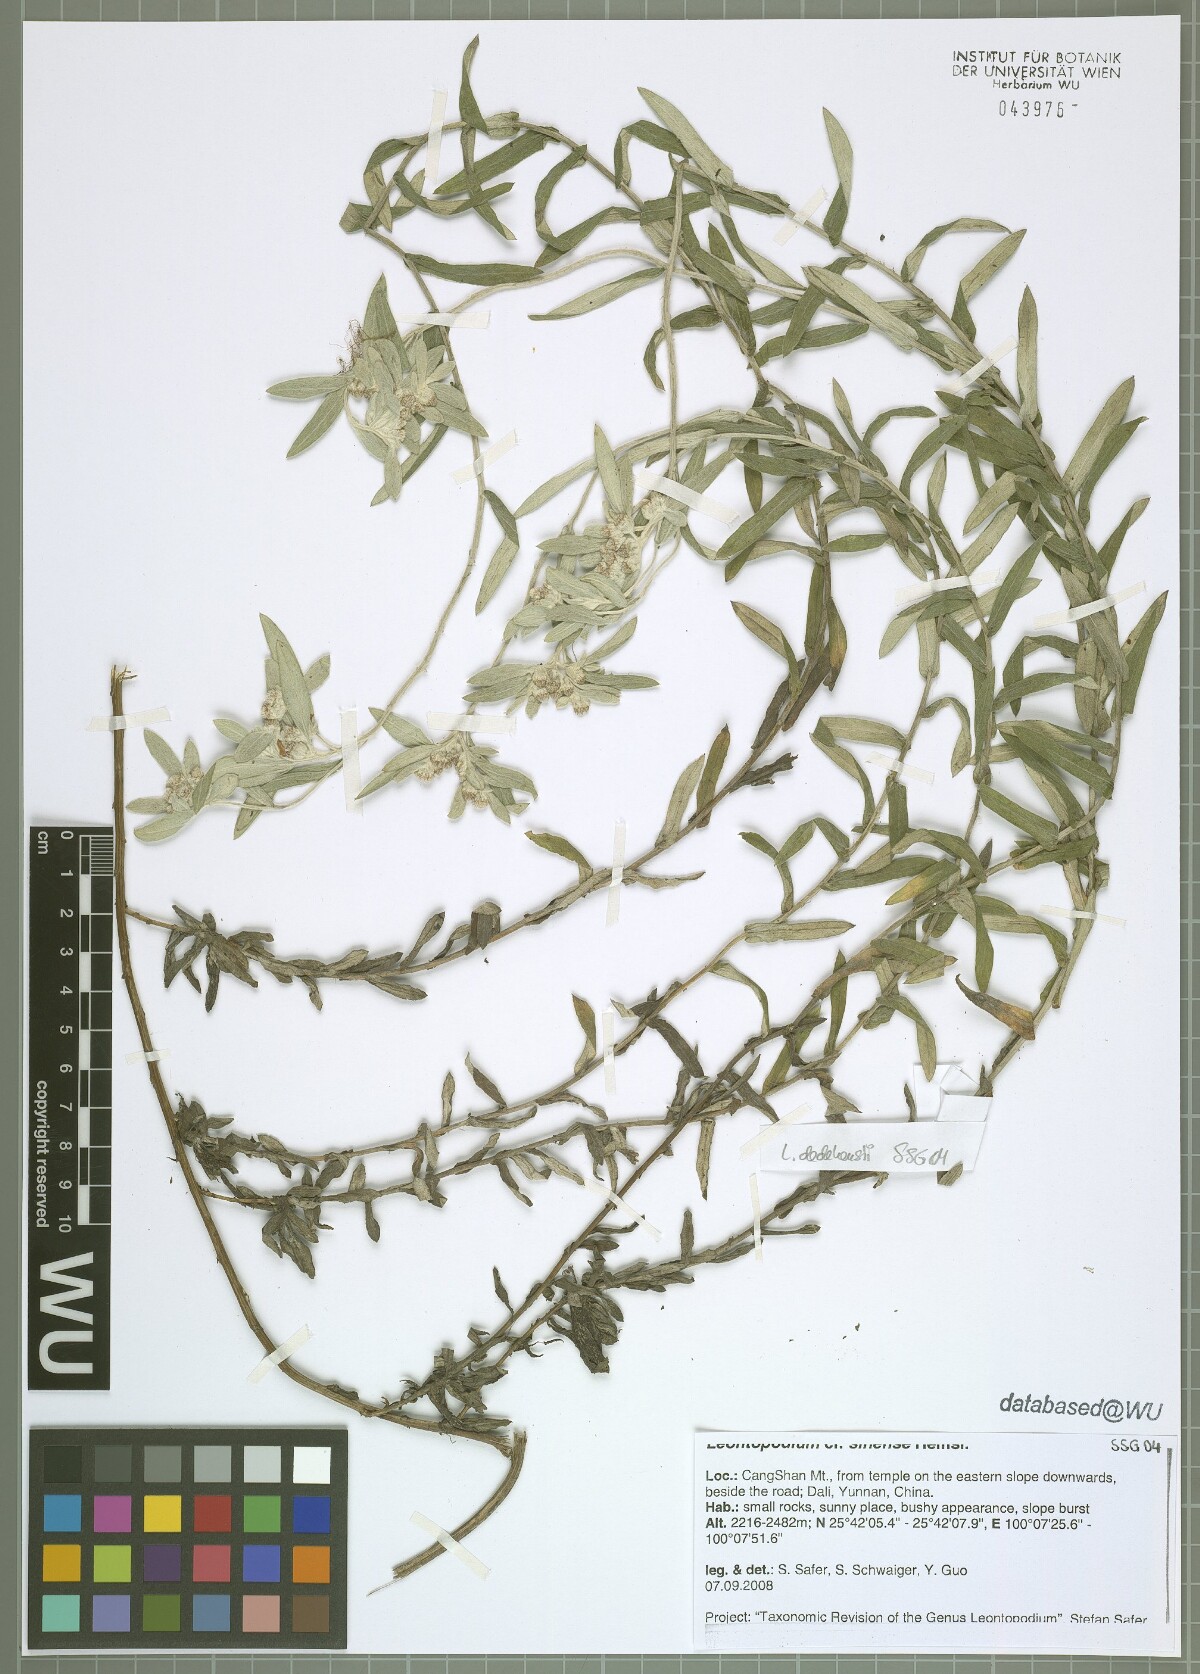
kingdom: Plantae
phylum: Tracheophyta
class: Magnoliopsida
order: Asterales
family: Asteraceae
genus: Leontopodium
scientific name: Leontopodium sinense
